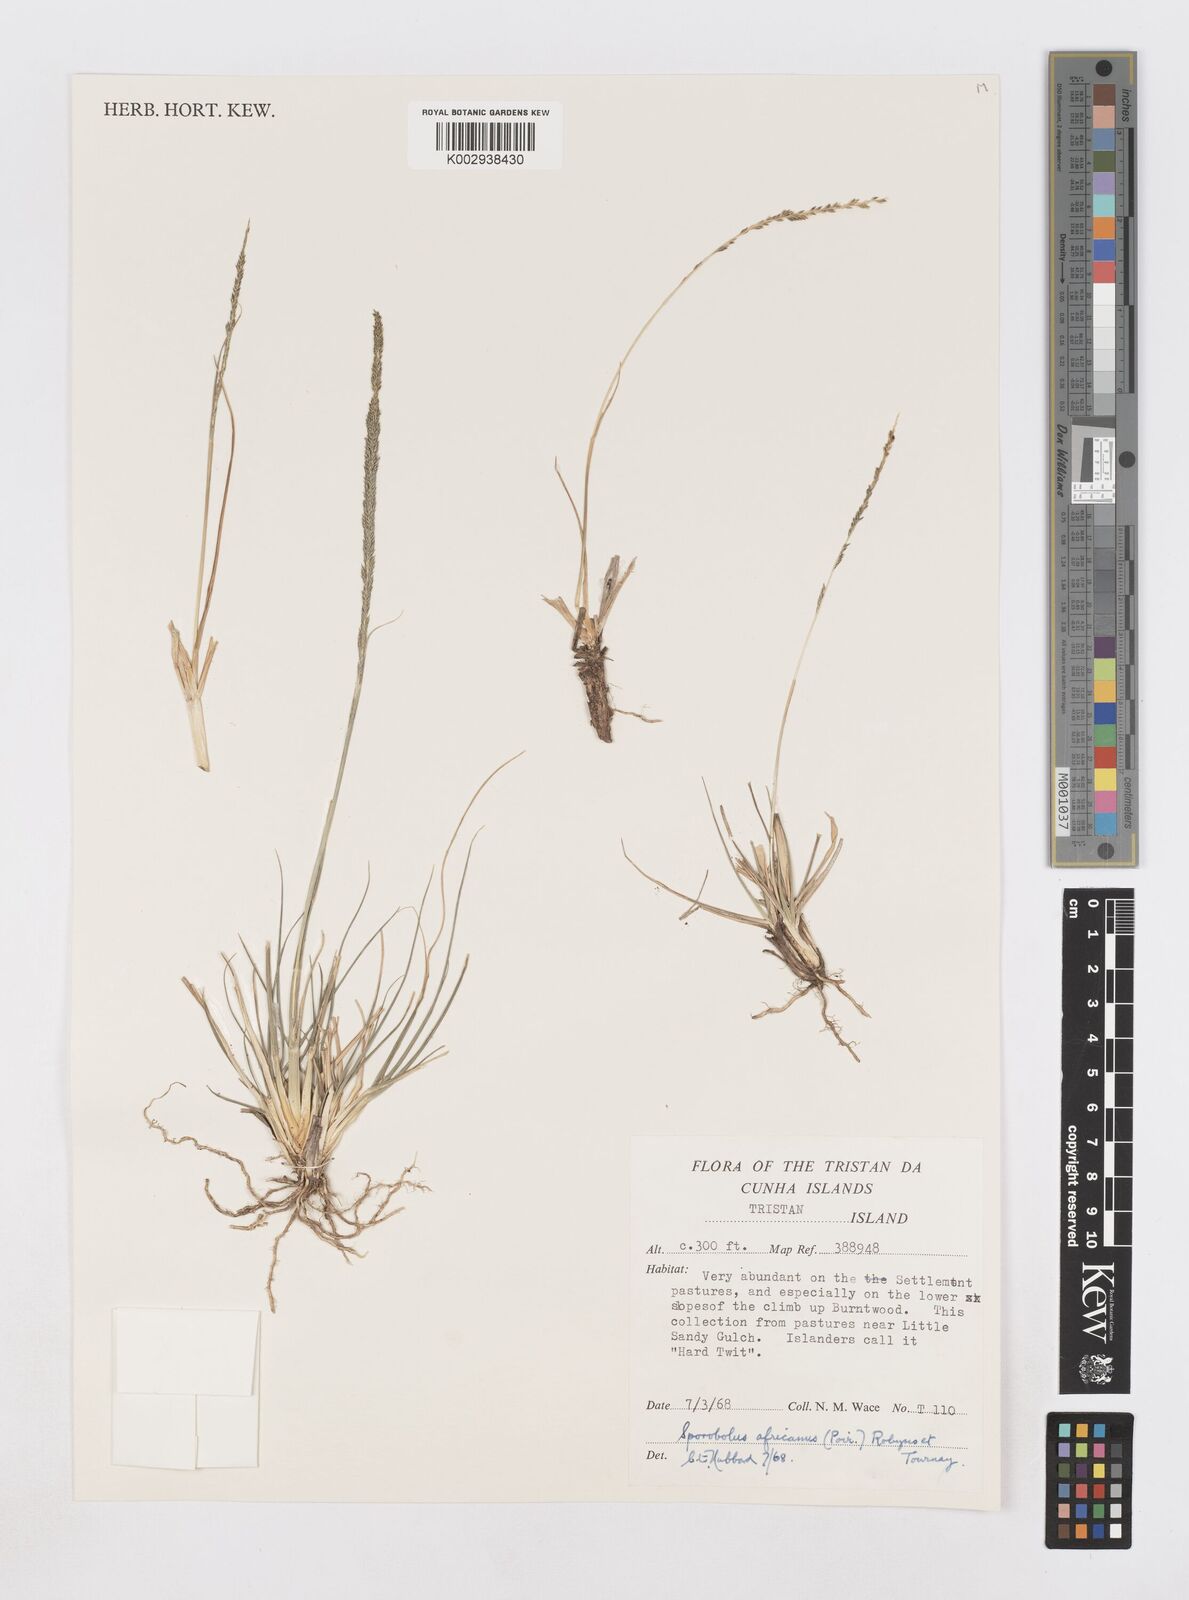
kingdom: Plantae
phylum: Tracheophyta
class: Liliopsida
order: Poales
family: Poaceae
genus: Sporobolus
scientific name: Sporobolus africanus
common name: African dropseed
